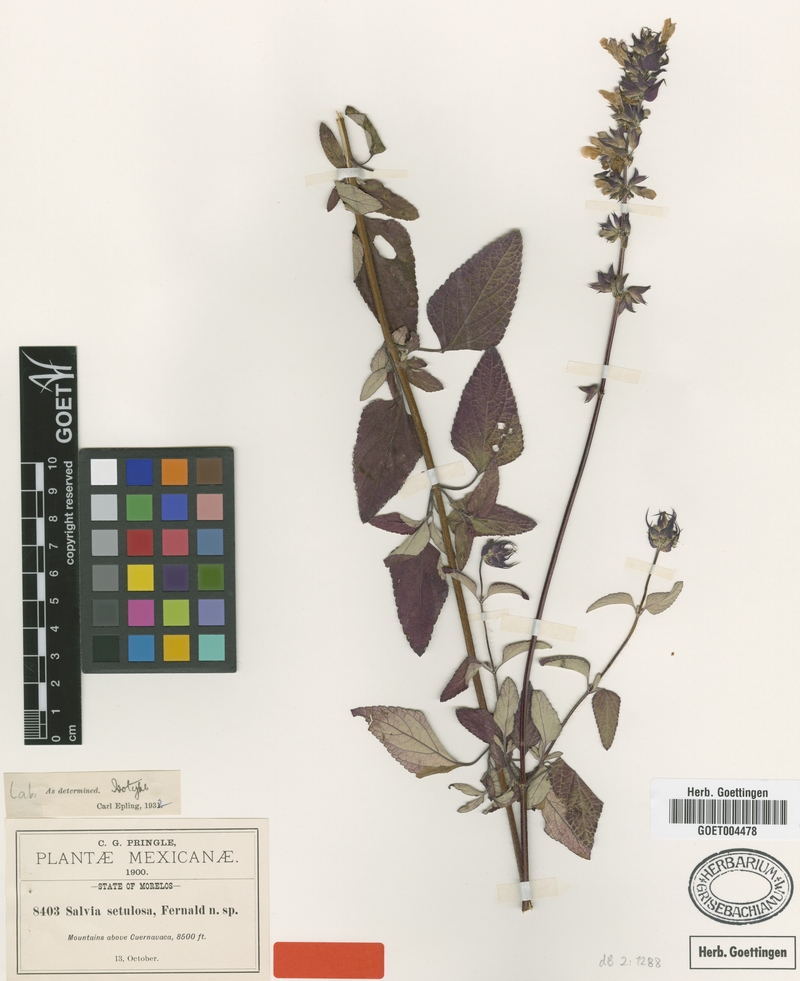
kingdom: Plantae
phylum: Tracheophyta
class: Magnoliopsida
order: Lamiales
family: Lamiaceae
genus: Salvia
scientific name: Salvia setulosa
